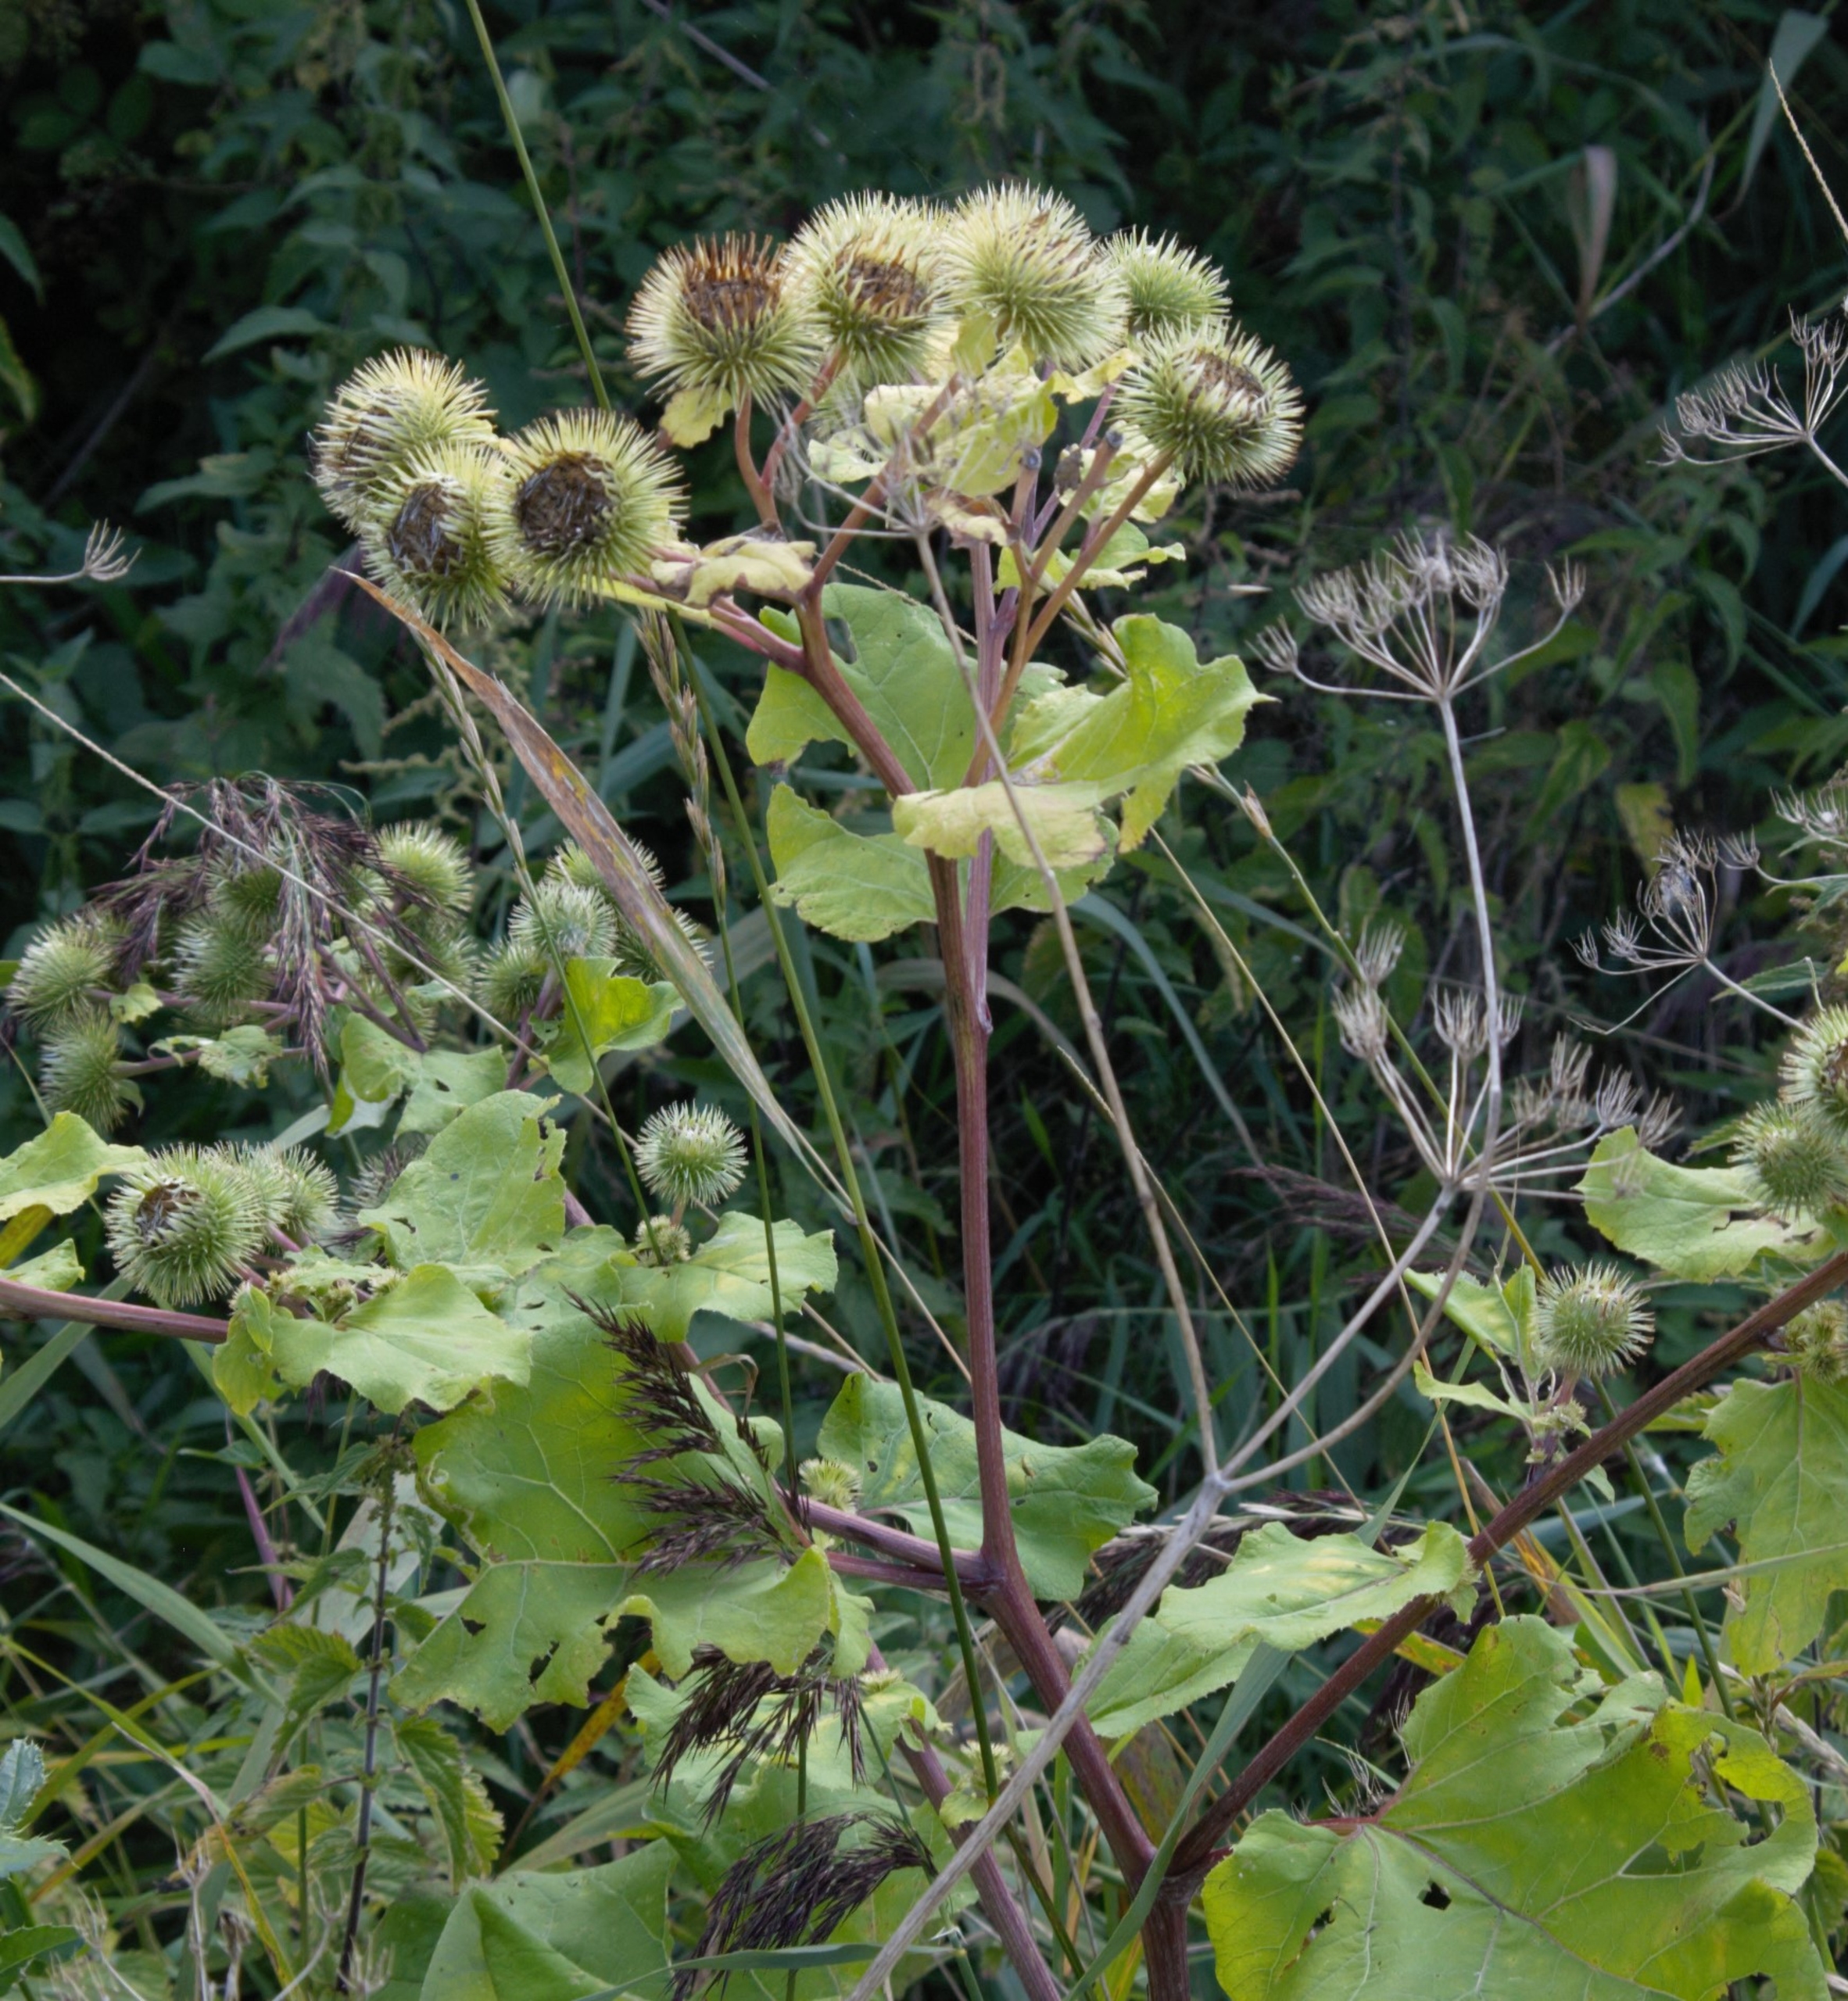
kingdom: Plantae
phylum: Tracheophyta
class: Magnoliopsida
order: Asterales
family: Asteraceae
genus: Arctium
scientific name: Arctium lappa
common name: Glat burre
